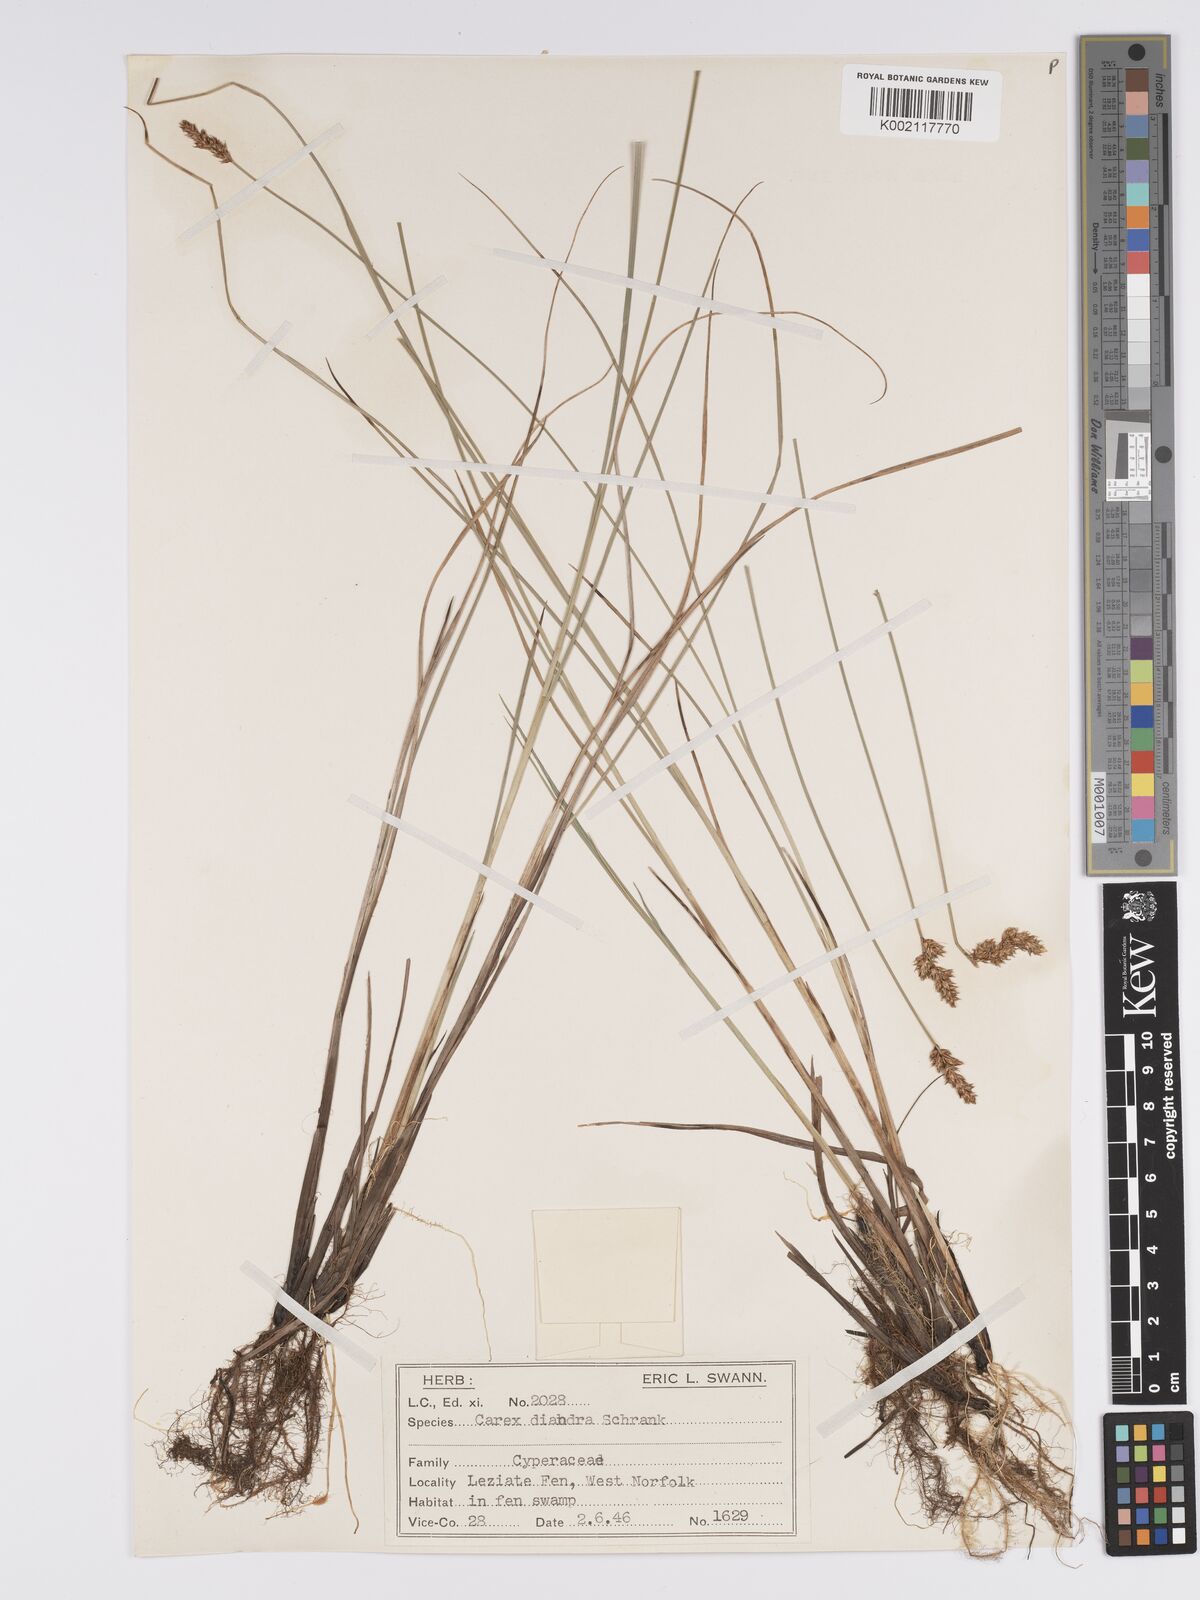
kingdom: Plantae
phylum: Tracheophyta
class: Liliopsida
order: Poales
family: Cyperaceae
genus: Carex
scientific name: Carex diandra
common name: Lesser tussock-sedge
